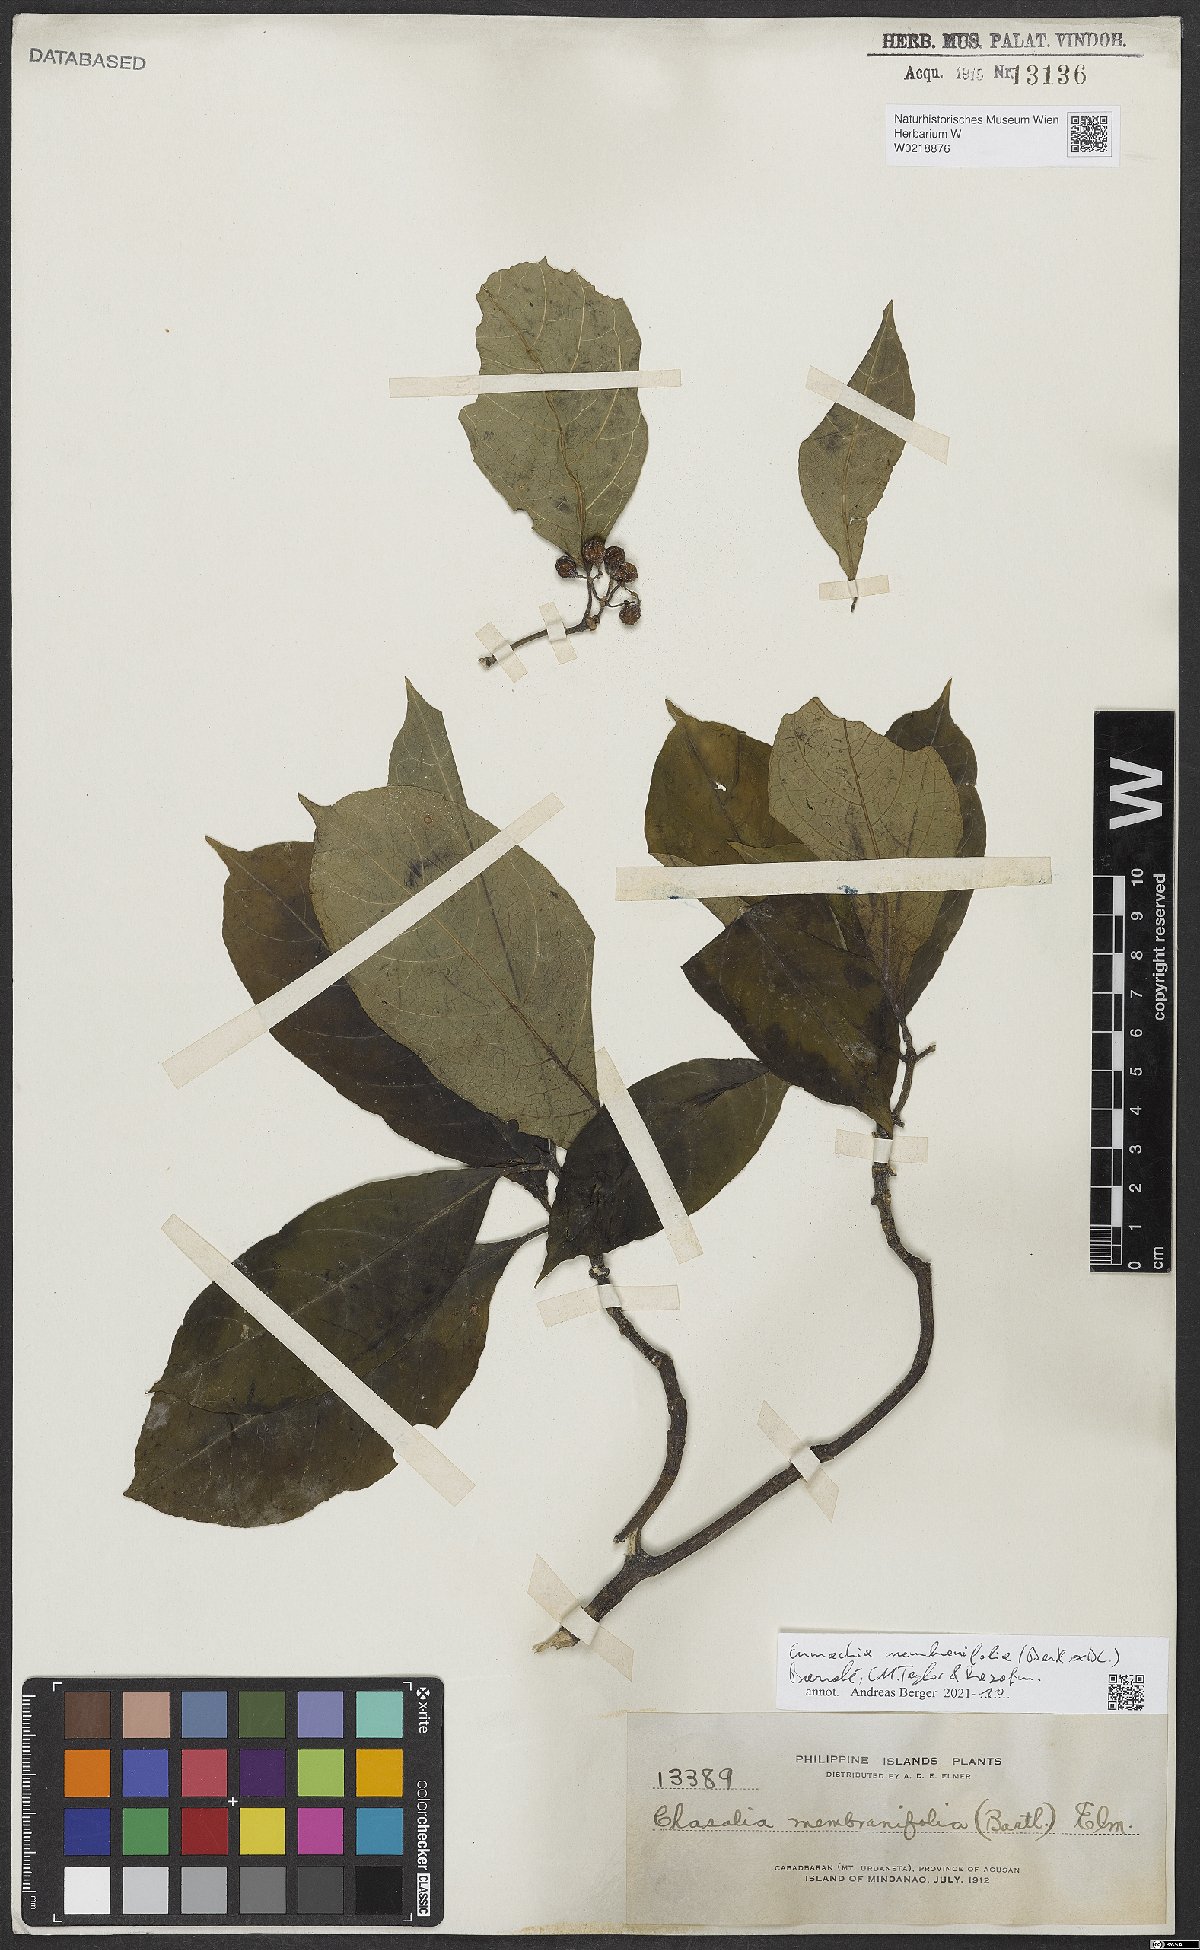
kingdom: Plantae
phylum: Tracheophyta
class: Magnoliopsida
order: Gentianales
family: Rubiaceae
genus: Eumachia
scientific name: Eumachia membranifolia
